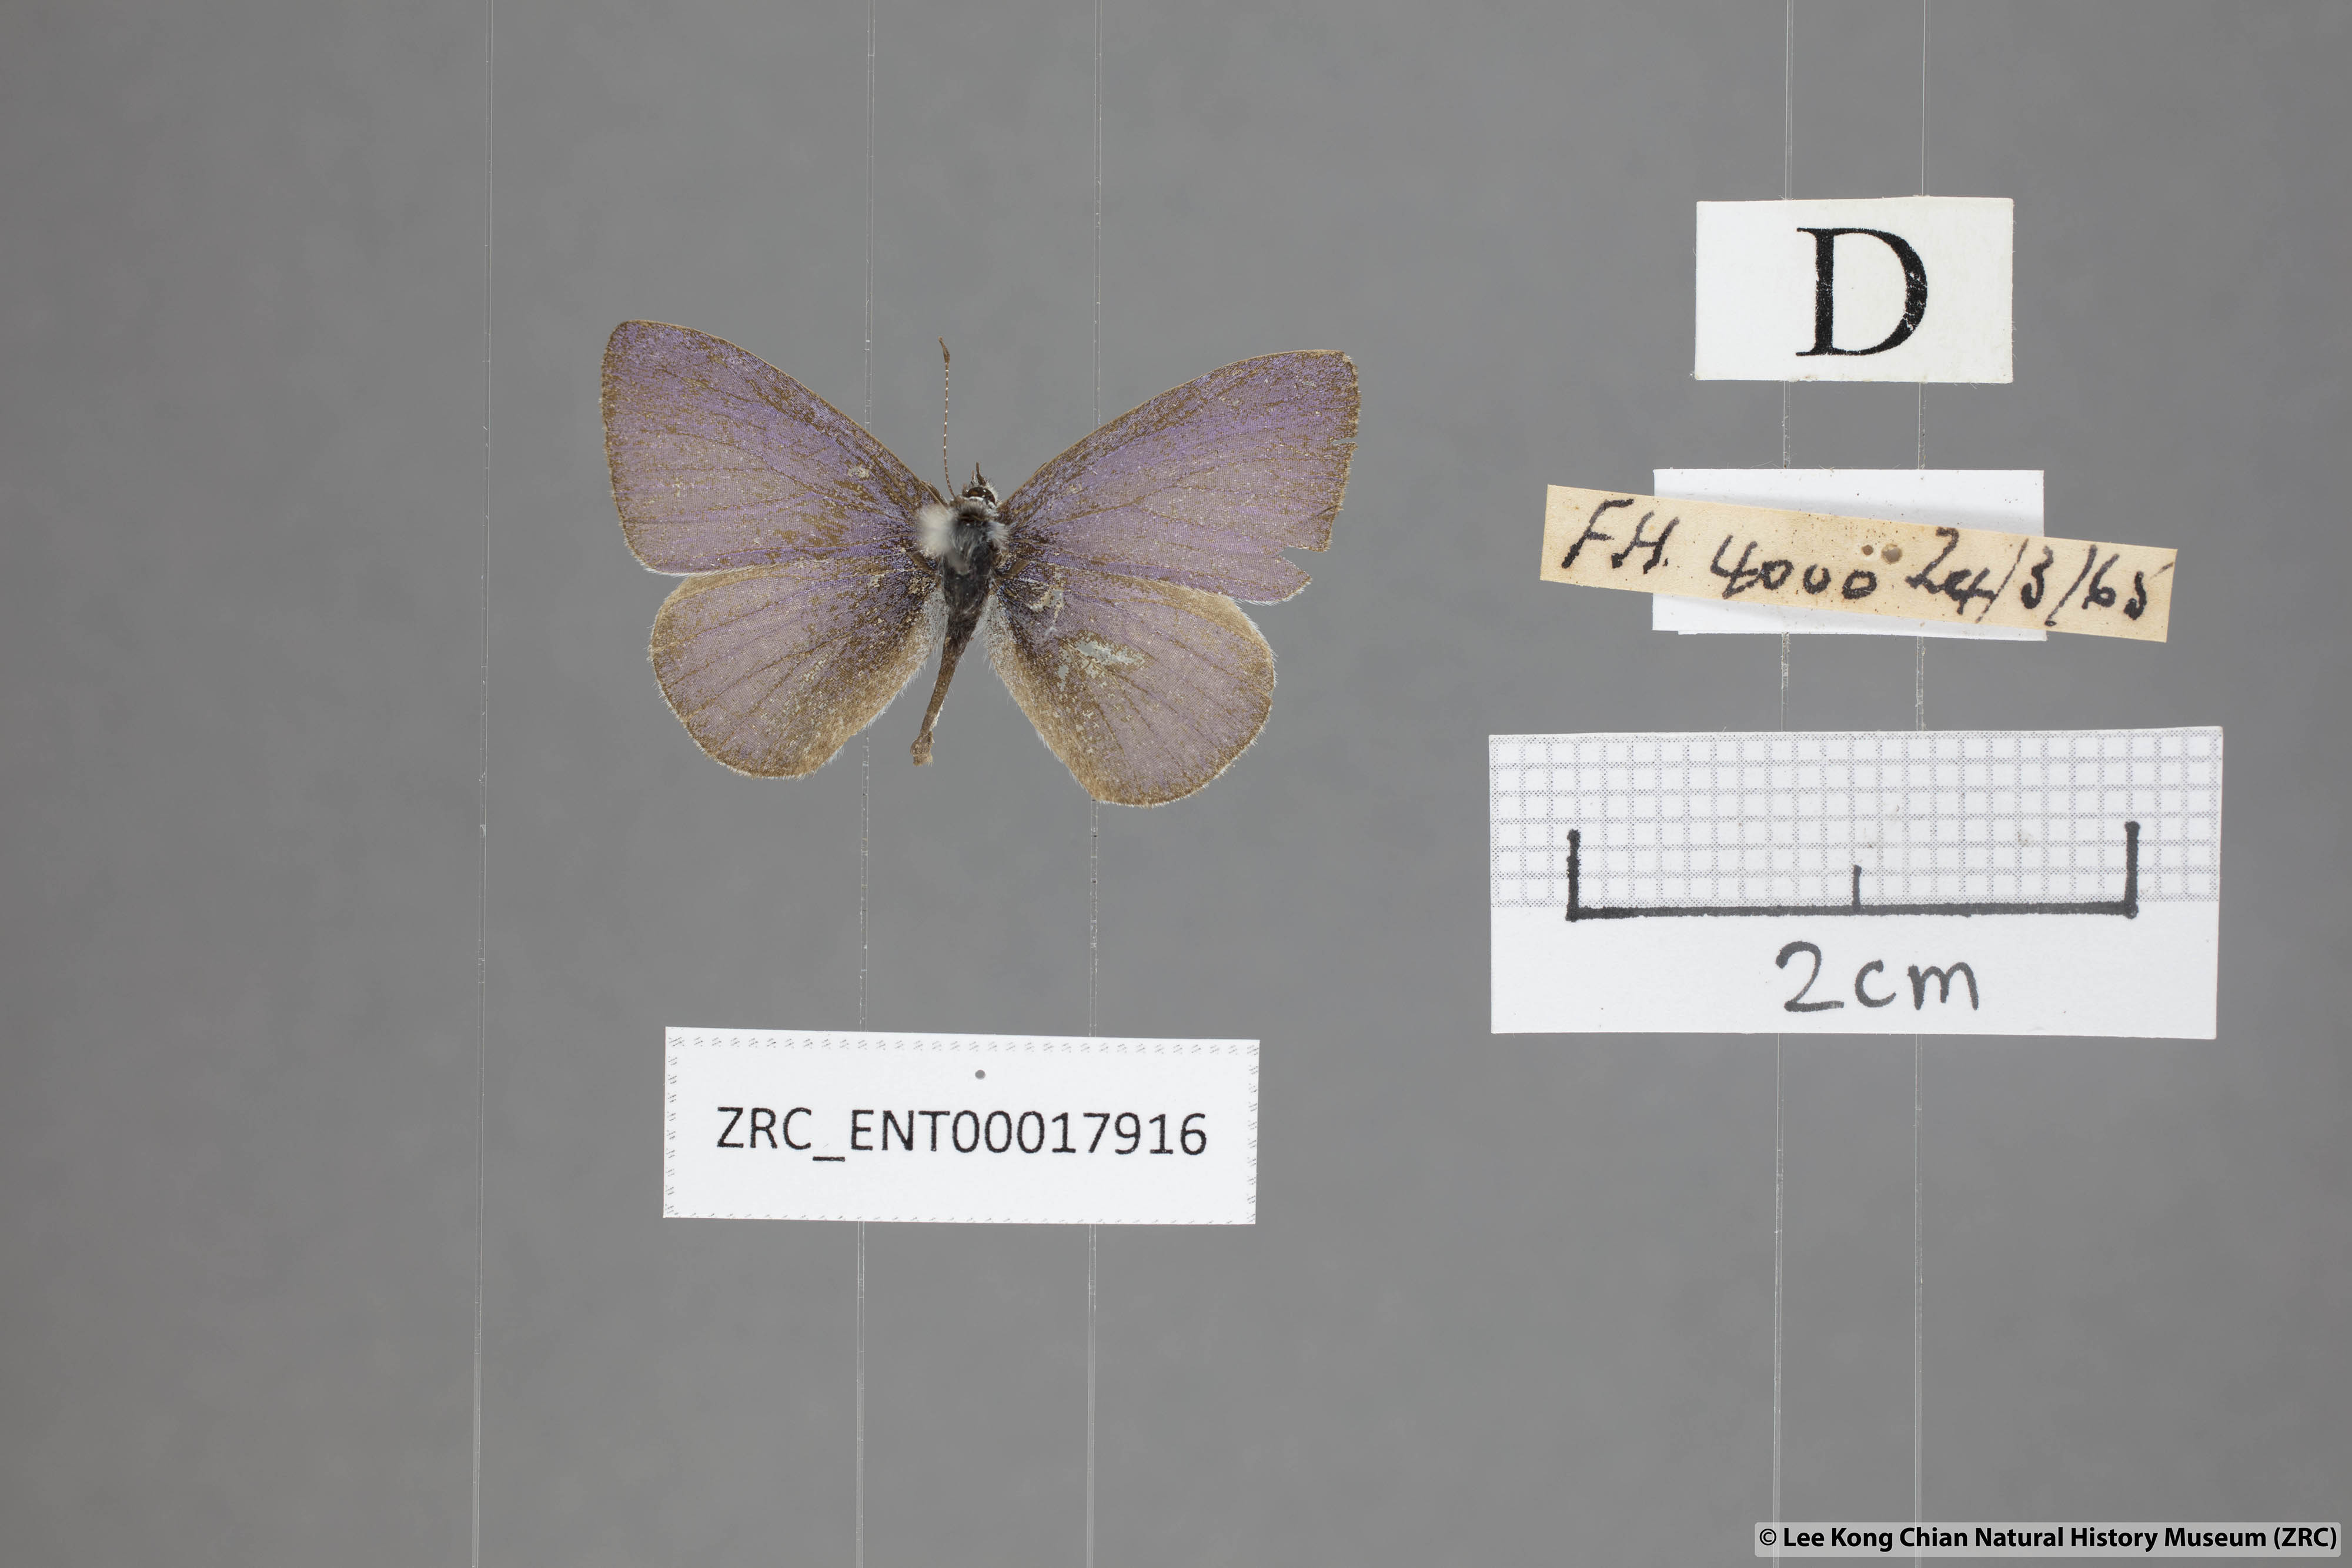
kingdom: Animalia
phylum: Arthropoda
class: Insecta
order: Lepidoptera
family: Lycaenidae
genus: Udara
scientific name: Udara
